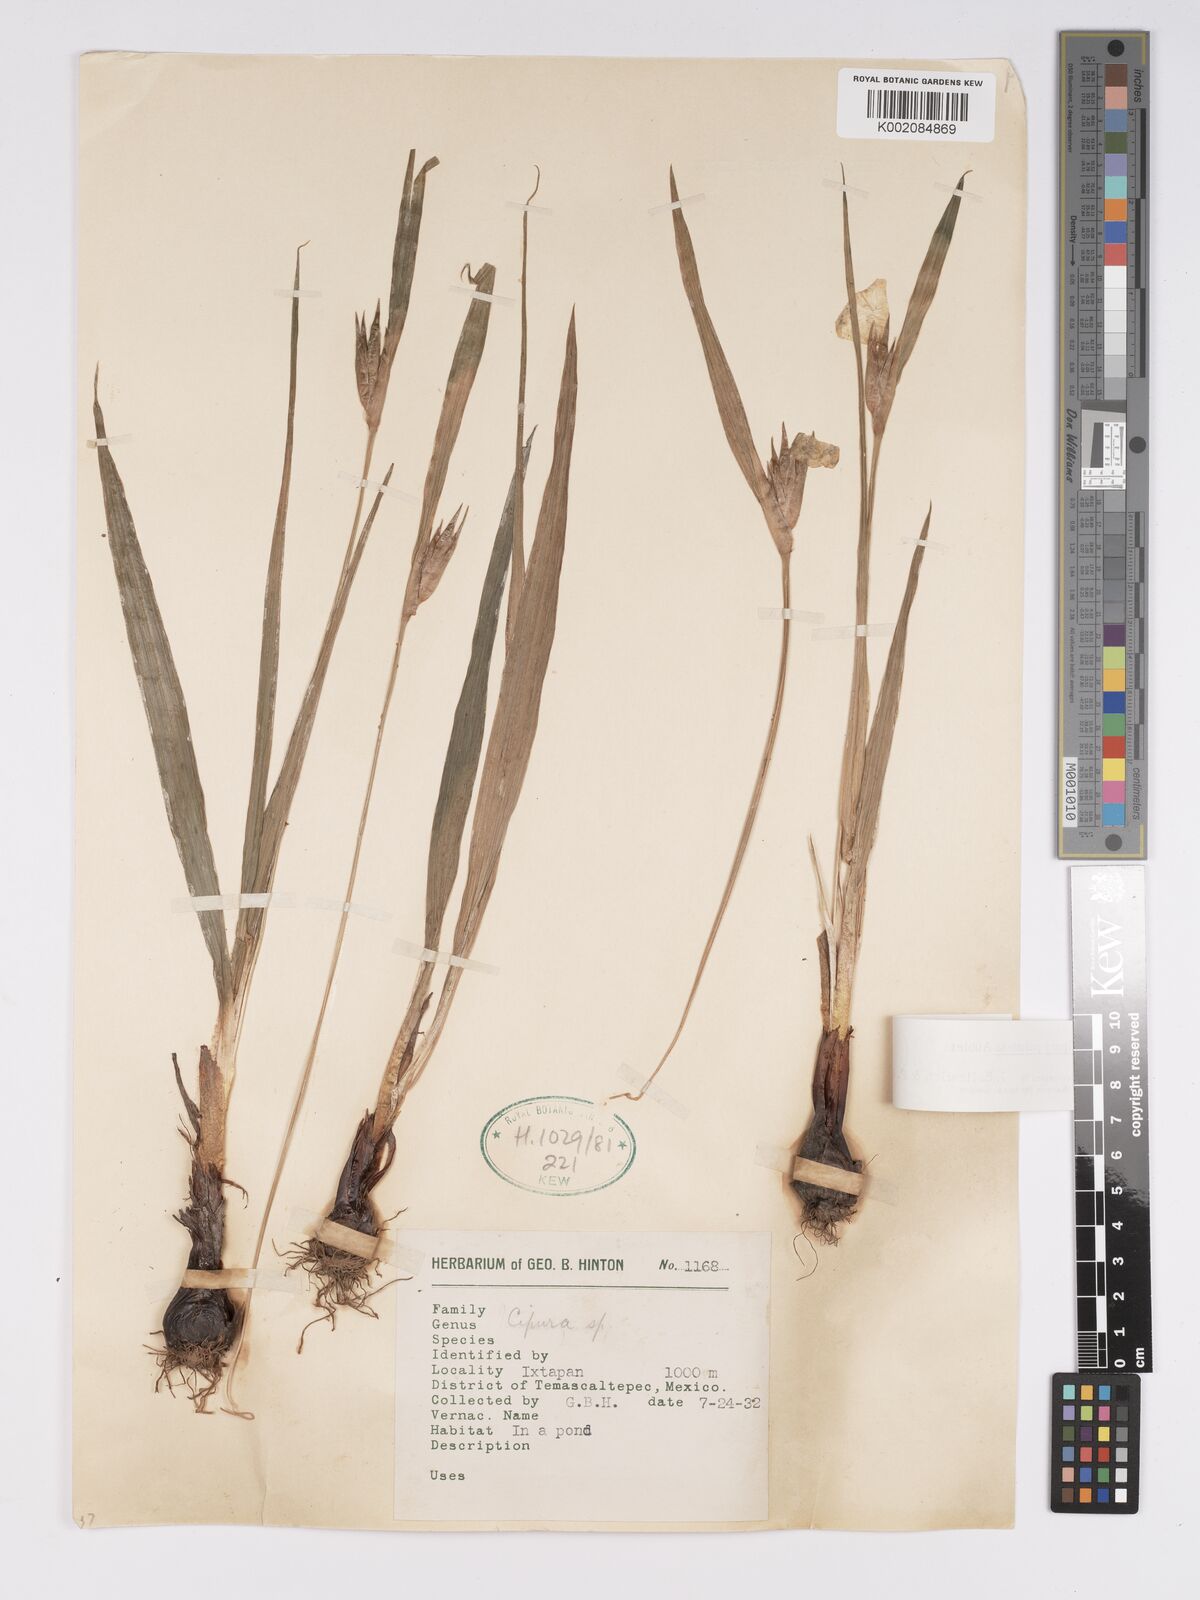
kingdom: Plantae
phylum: Tracheophyta
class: Liliopsida
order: Asparagales
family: Iridaceae
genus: Cipura
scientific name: Cipura paludosa
